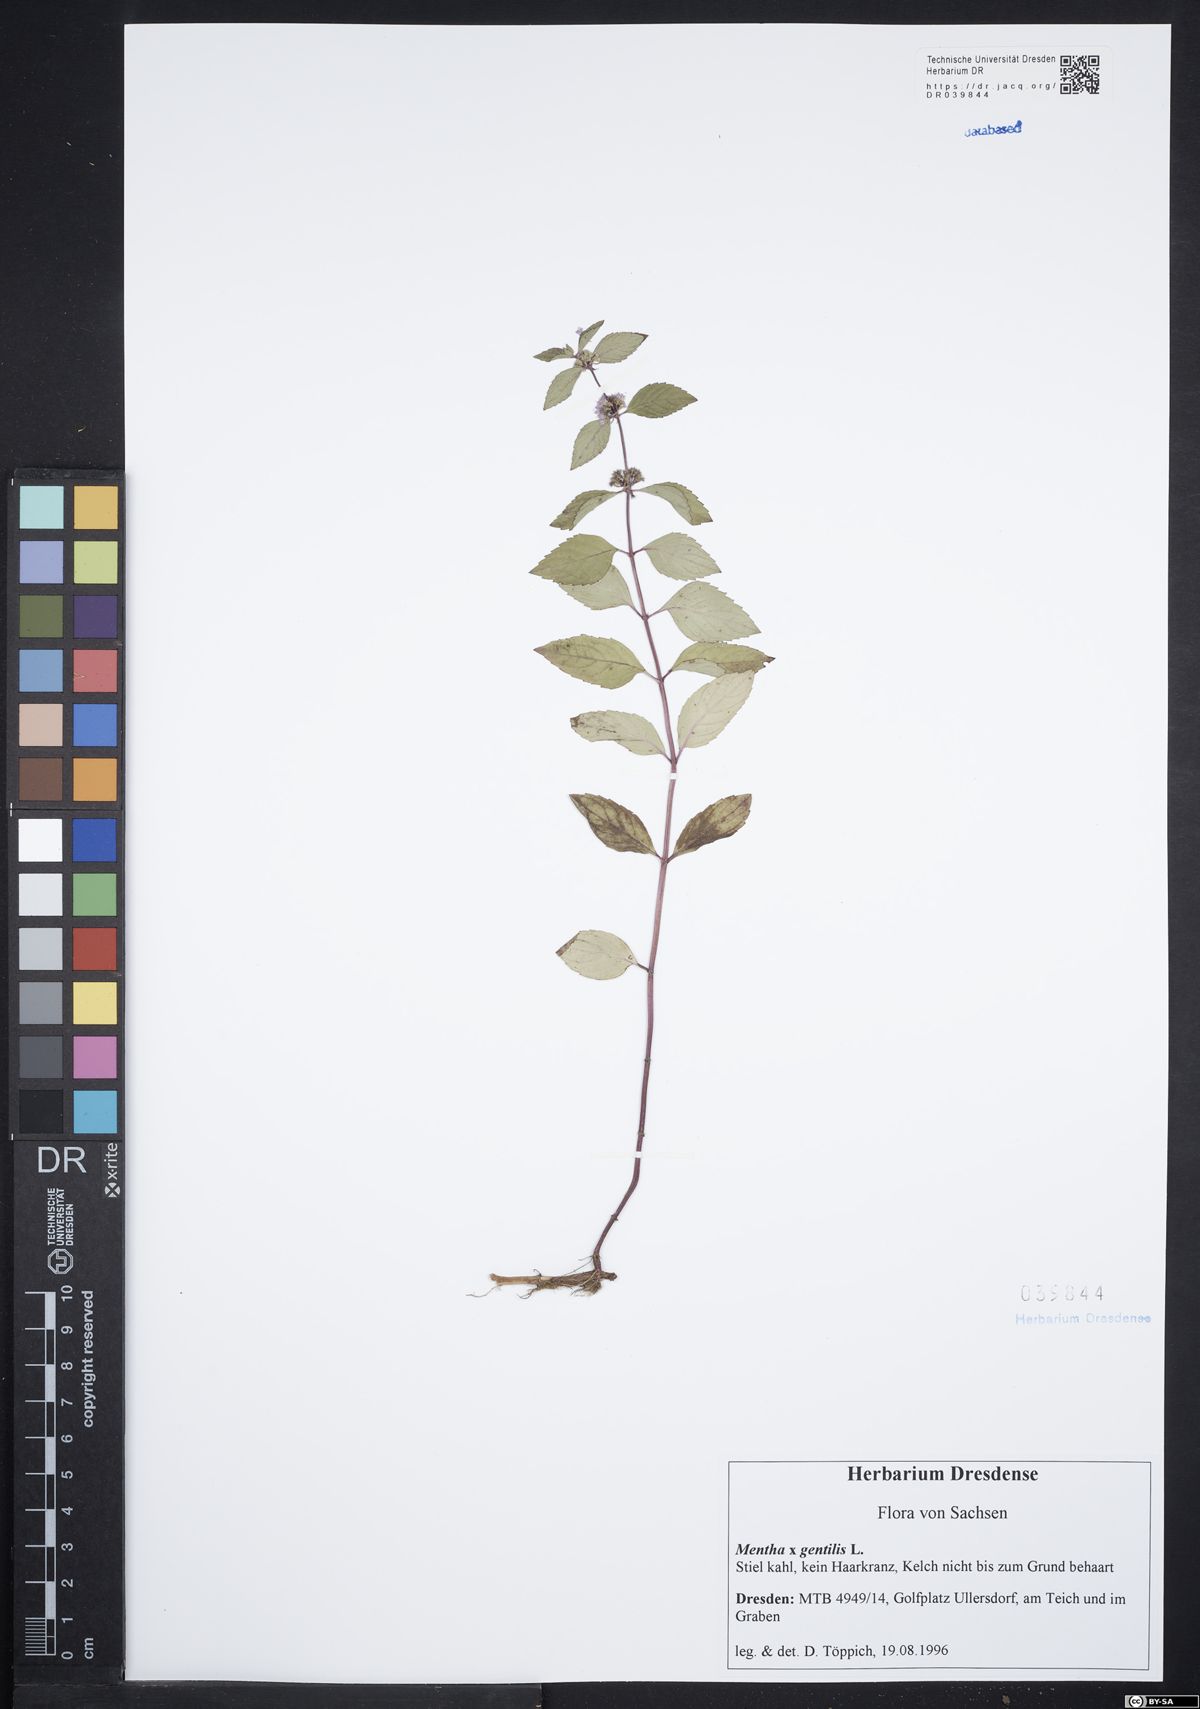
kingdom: Plantae
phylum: Tracheophyta
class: Magnoliopsida
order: Lamiales
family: Lamiaceae
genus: Mentha
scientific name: Mentha gracilis
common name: Bushy mint
